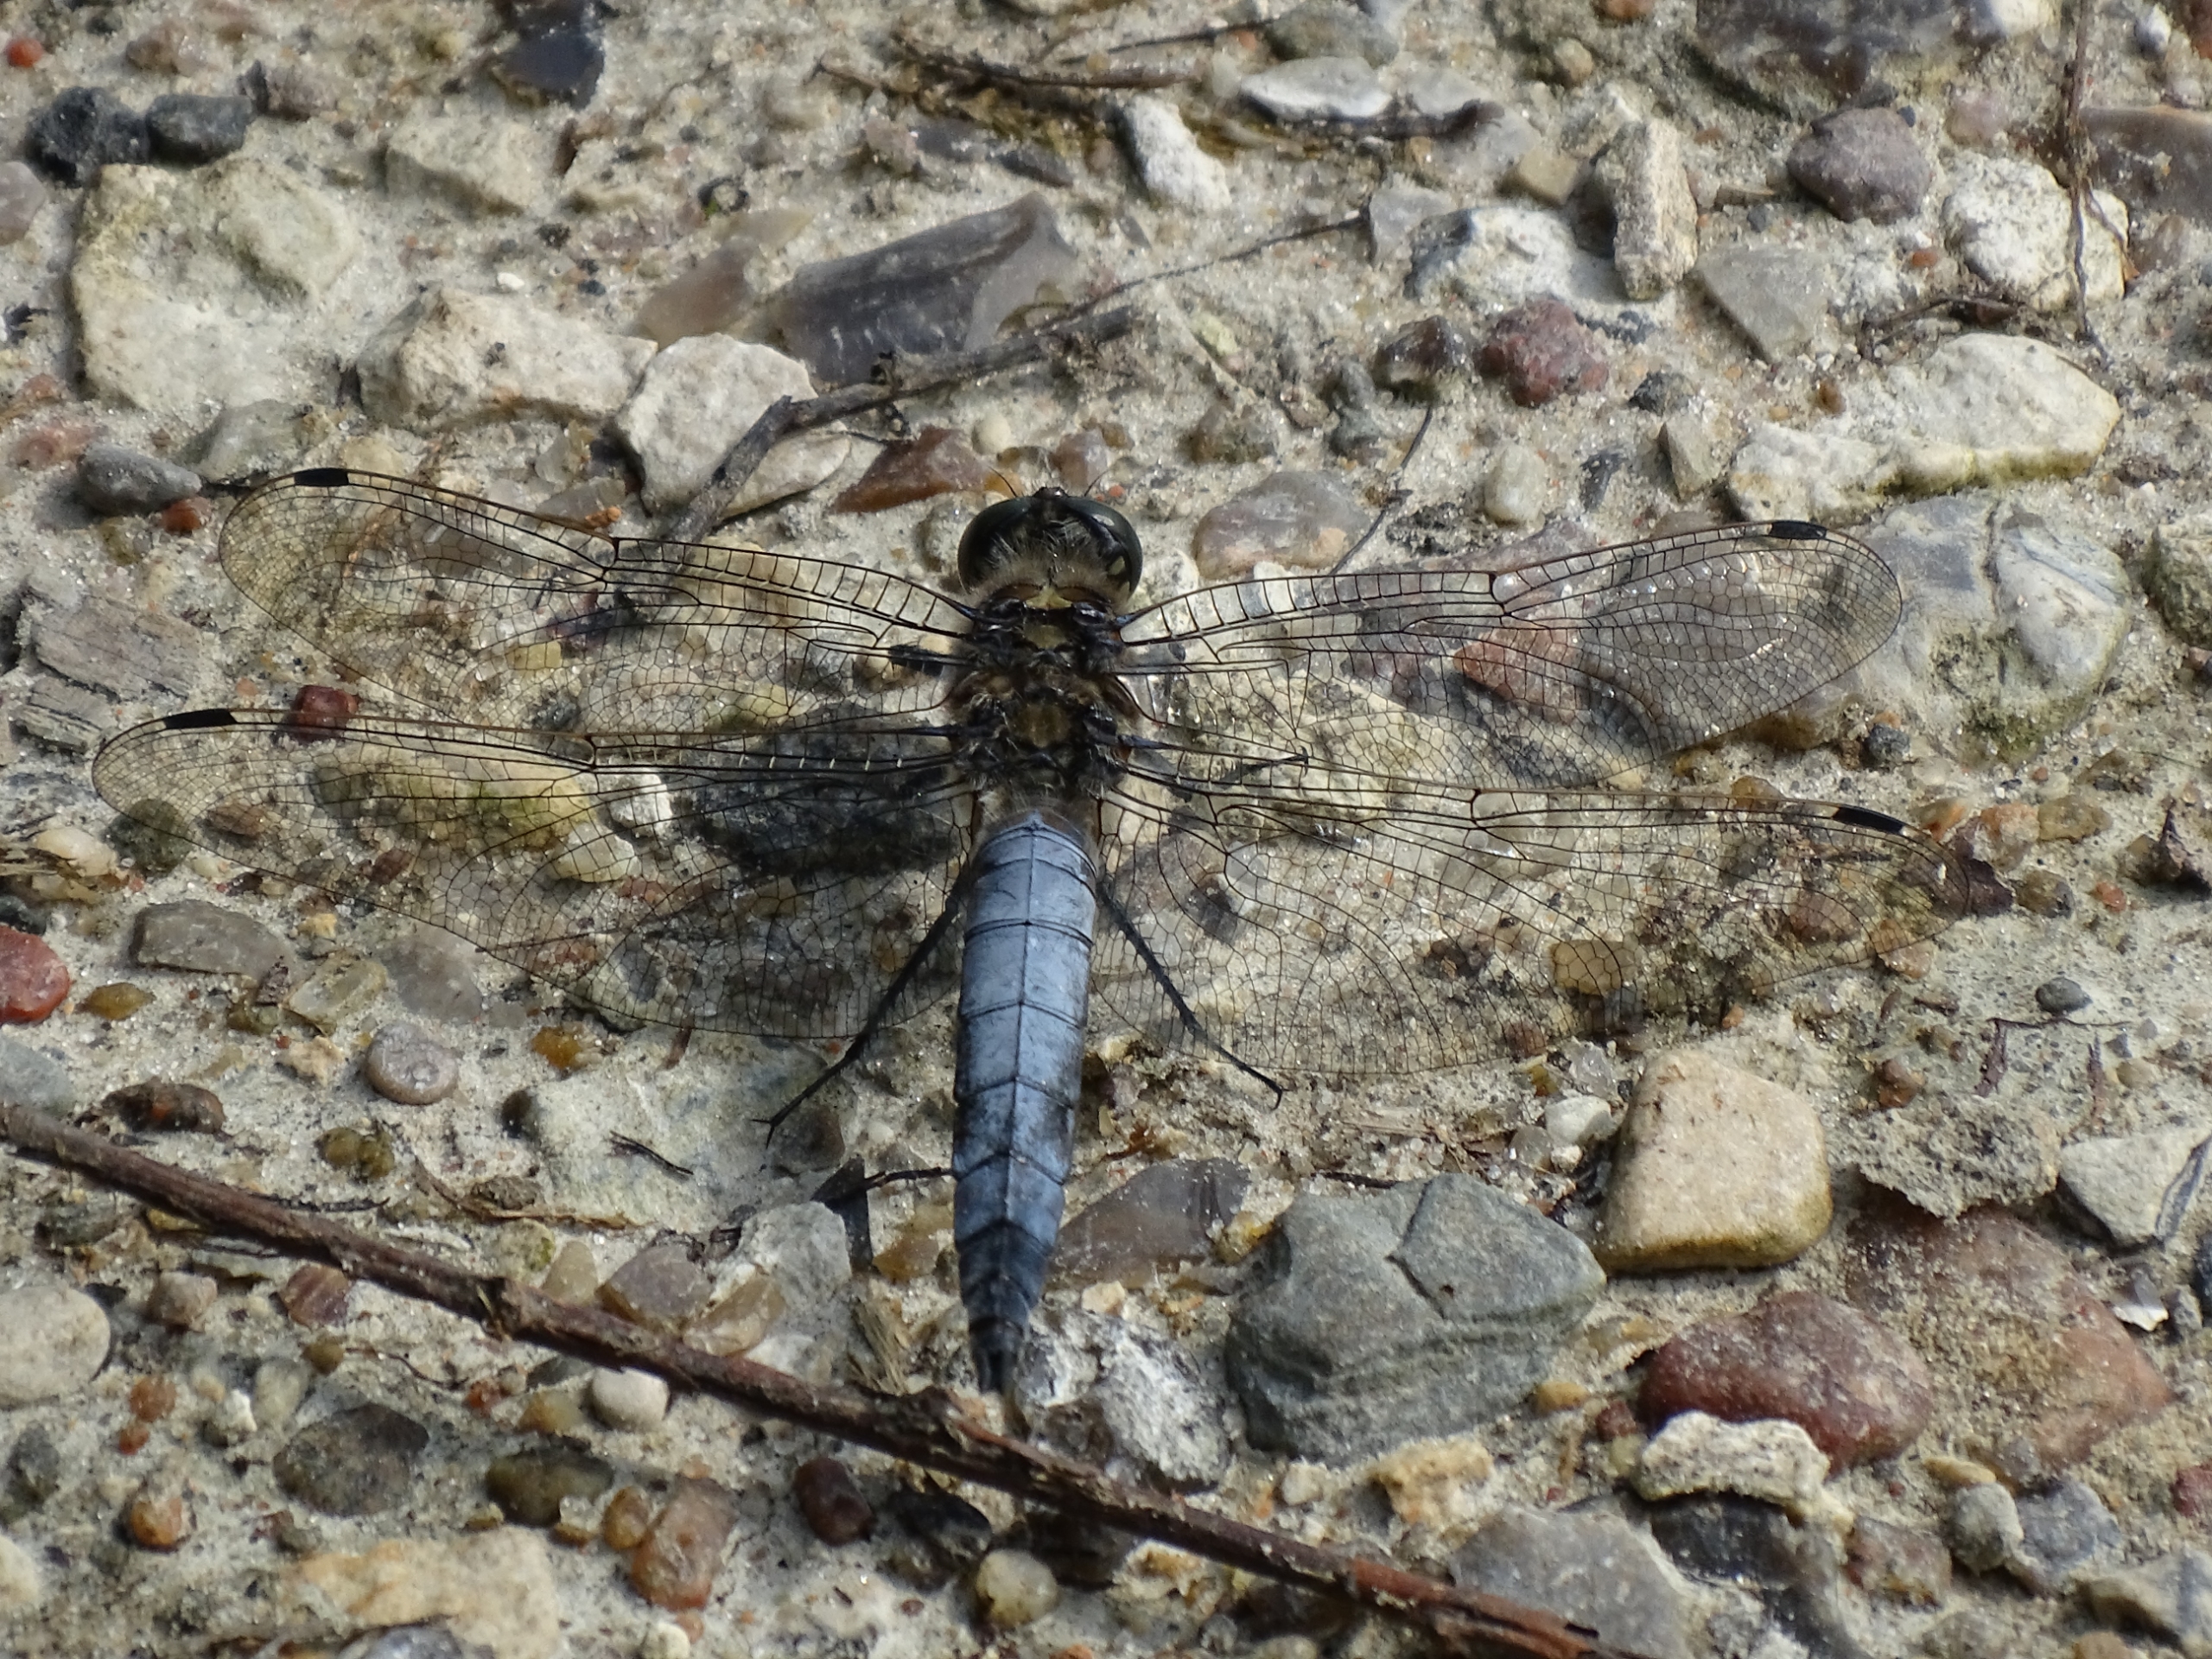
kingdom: Animalia
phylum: Arthropoda
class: Insecta
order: Odonata
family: Libellulidae
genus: Orthetrum
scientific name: Orthetrum cancellatum
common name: Stor blåpil
